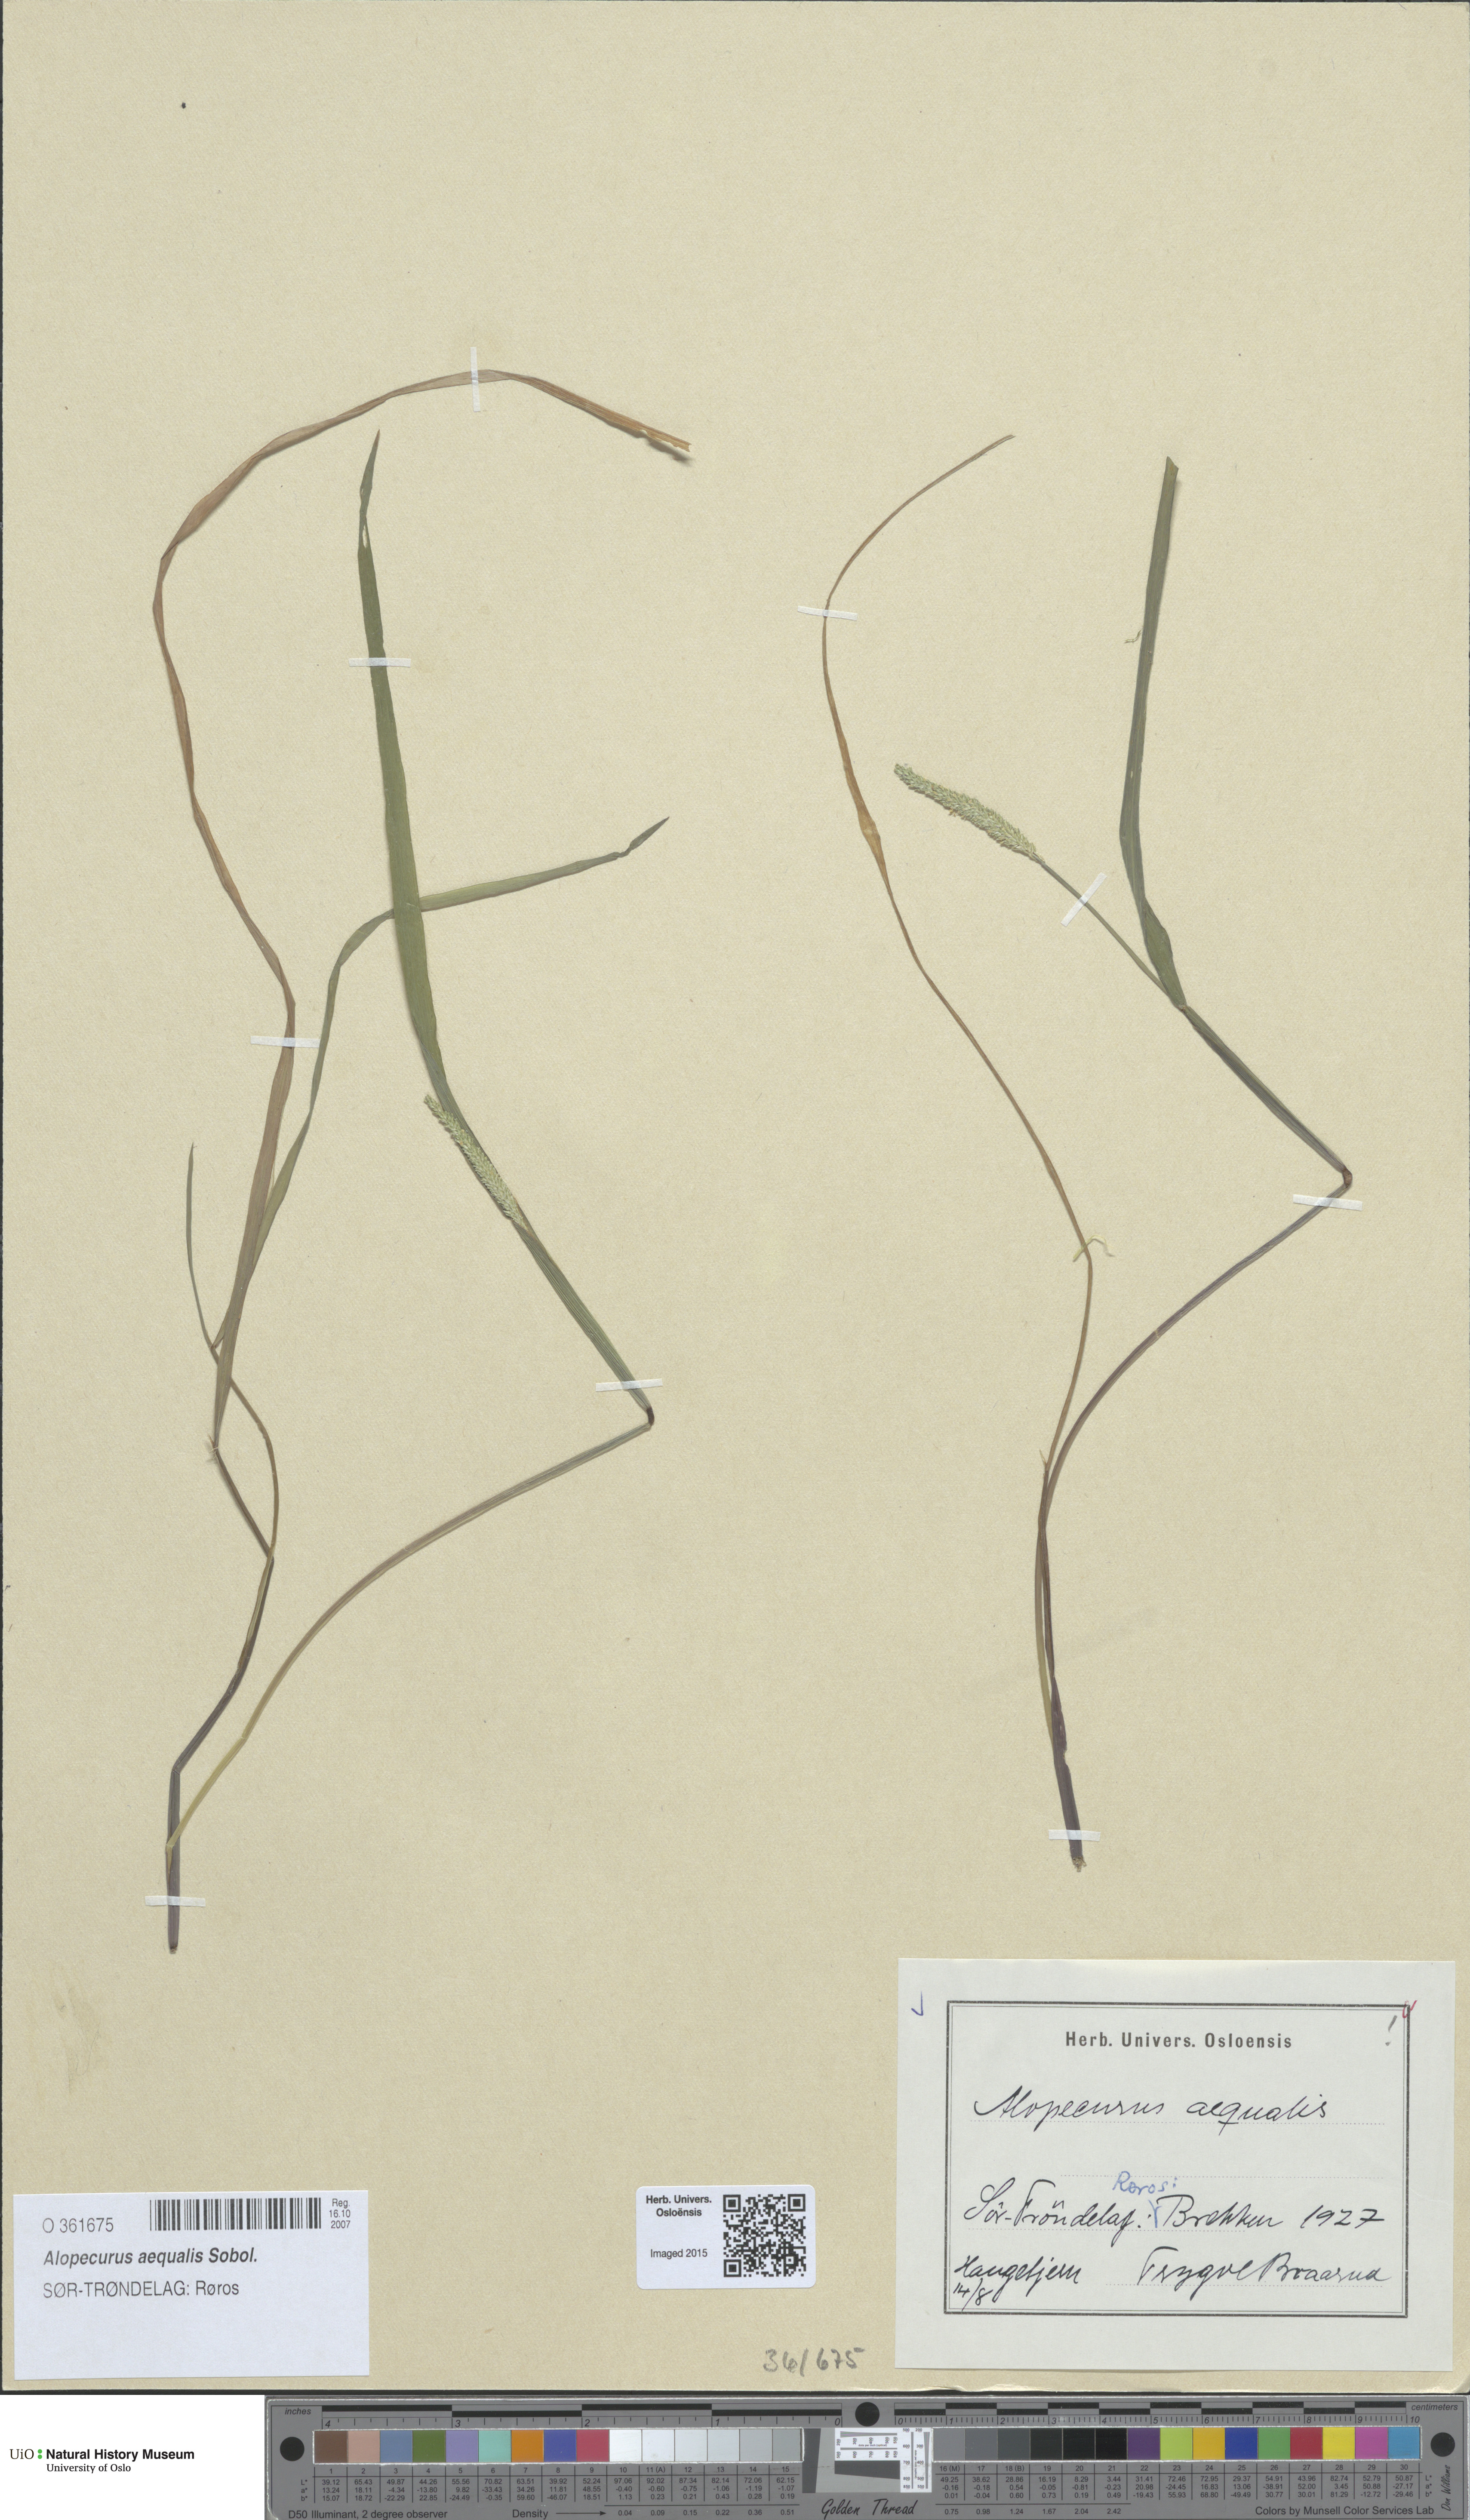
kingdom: Plantae
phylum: Tracheophyta
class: Liliopsida
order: Poales
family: Poaceae
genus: Alopecurus
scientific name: Alopecurus aequalis
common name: Orange foxtail
